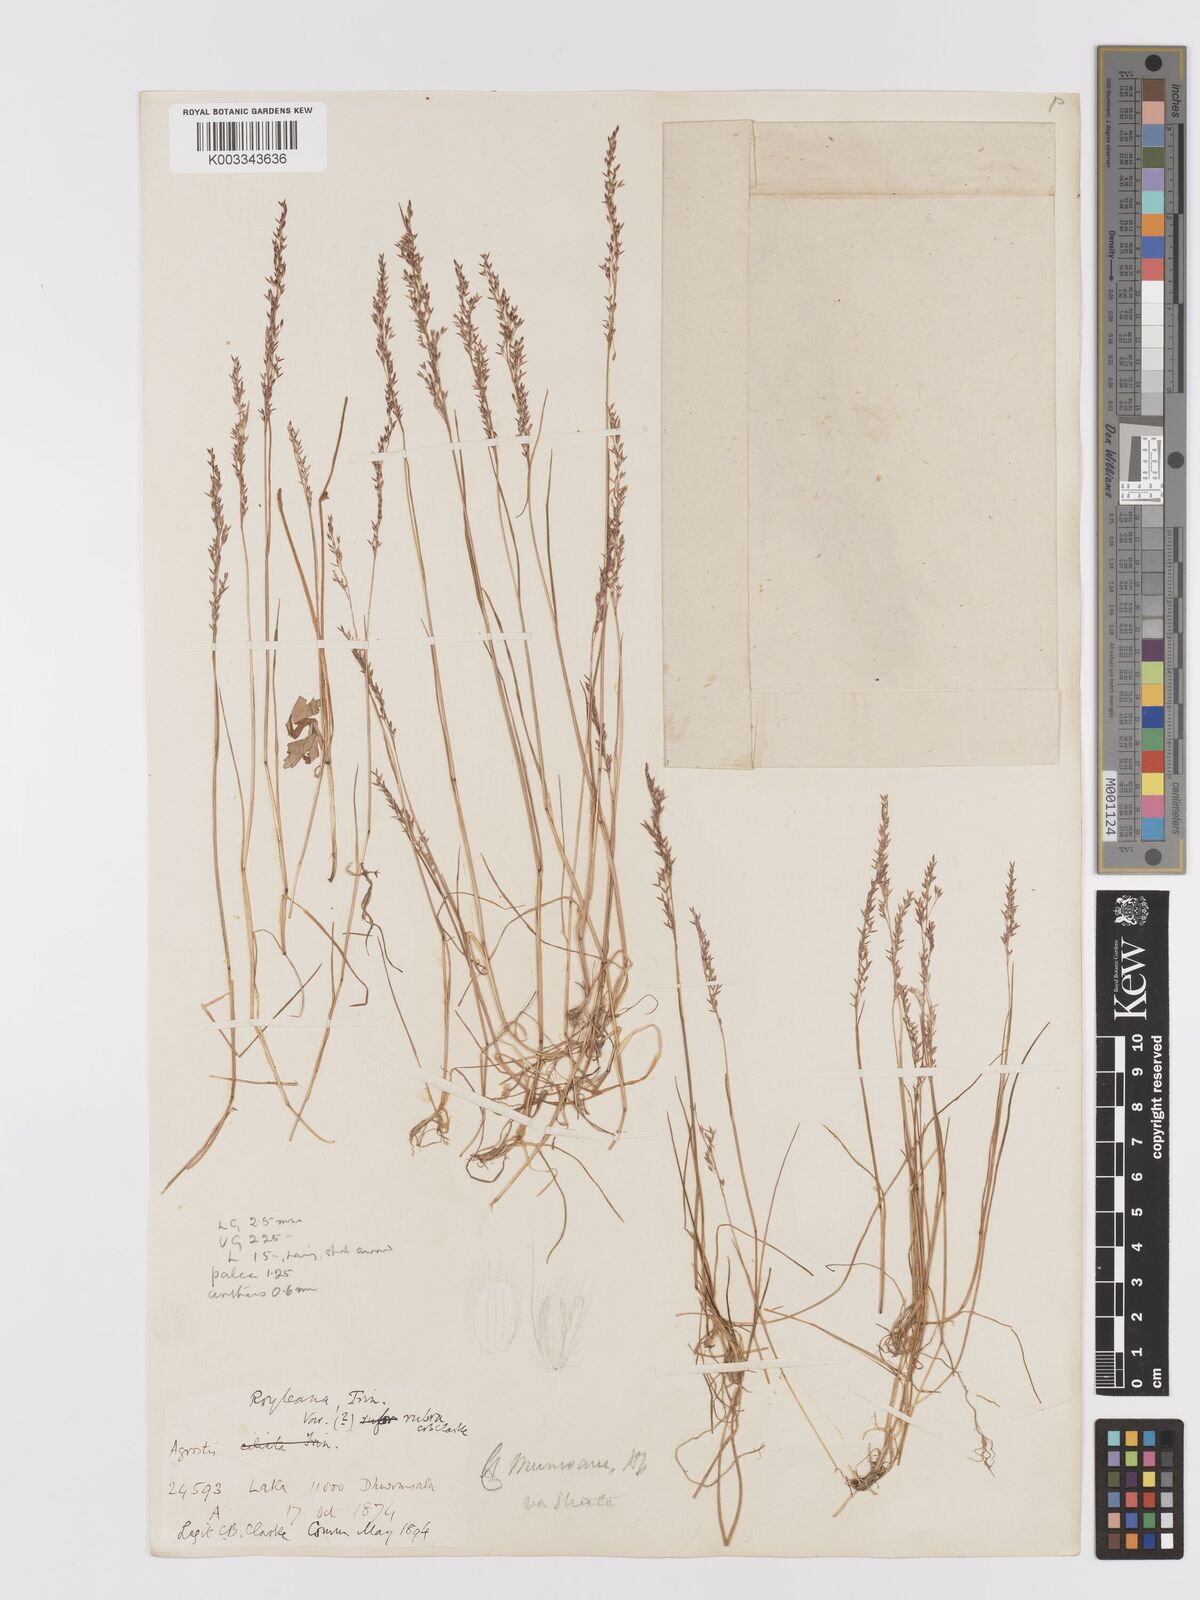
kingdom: Plantae
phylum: Tracheophyta
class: Liliopsida
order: Poales
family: Poaceae
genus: Agrostis
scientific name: Agrostis munroana
